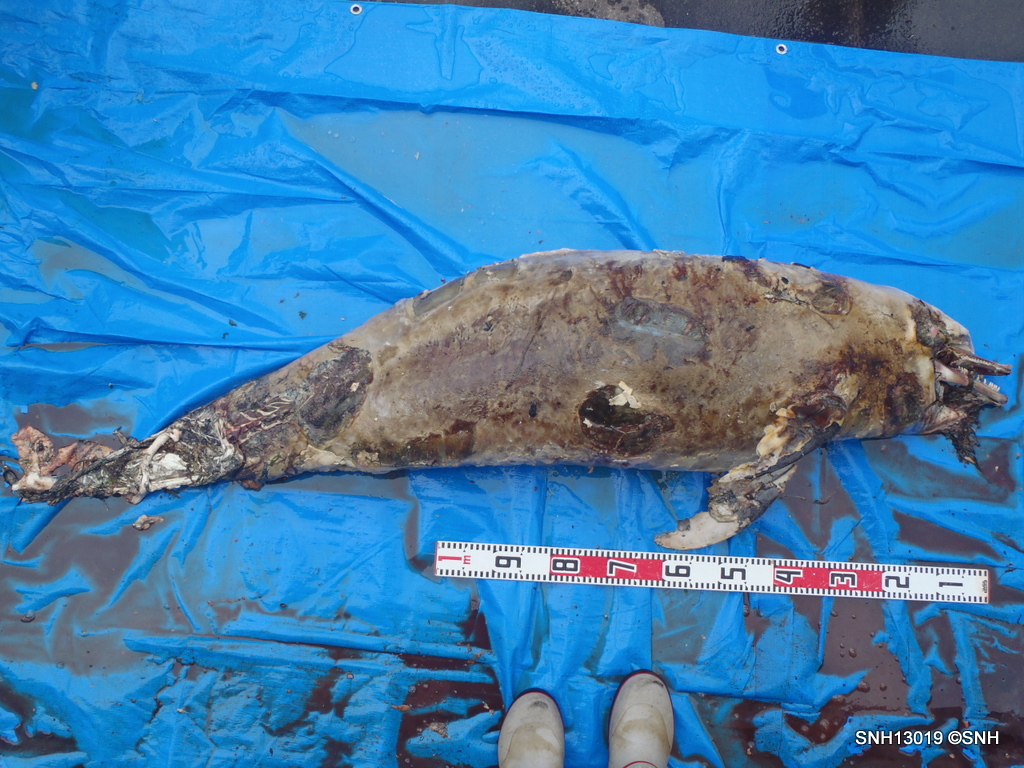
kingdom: Animalia
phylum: Chordata
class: Mammalia
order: Cetacea
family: Delphinidae
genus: Lagenorhynchus
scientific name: Lagenorhynchus obliquidens
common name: Pacific white-sided dolphin
